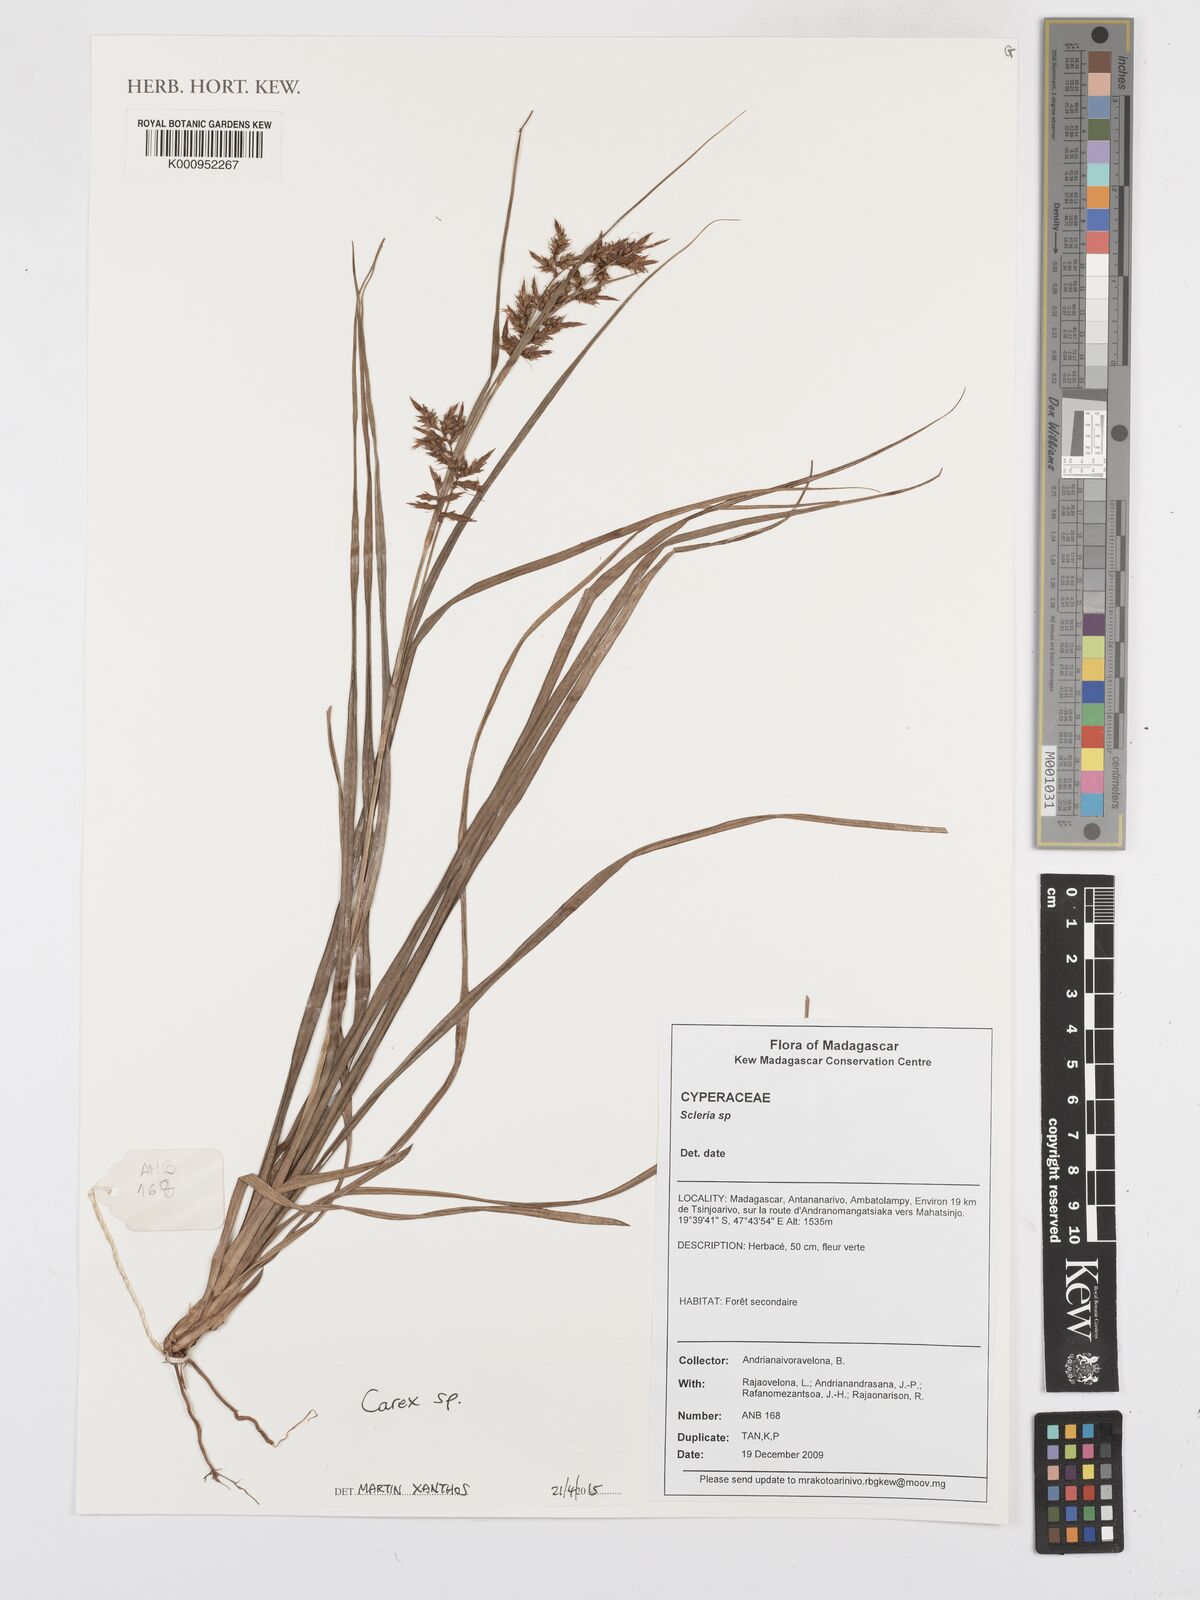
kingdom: Plantae
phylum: Tracheophyta
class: Liliopsida
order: Poales
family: Cyperaceae
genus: Carex
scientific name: Carex
